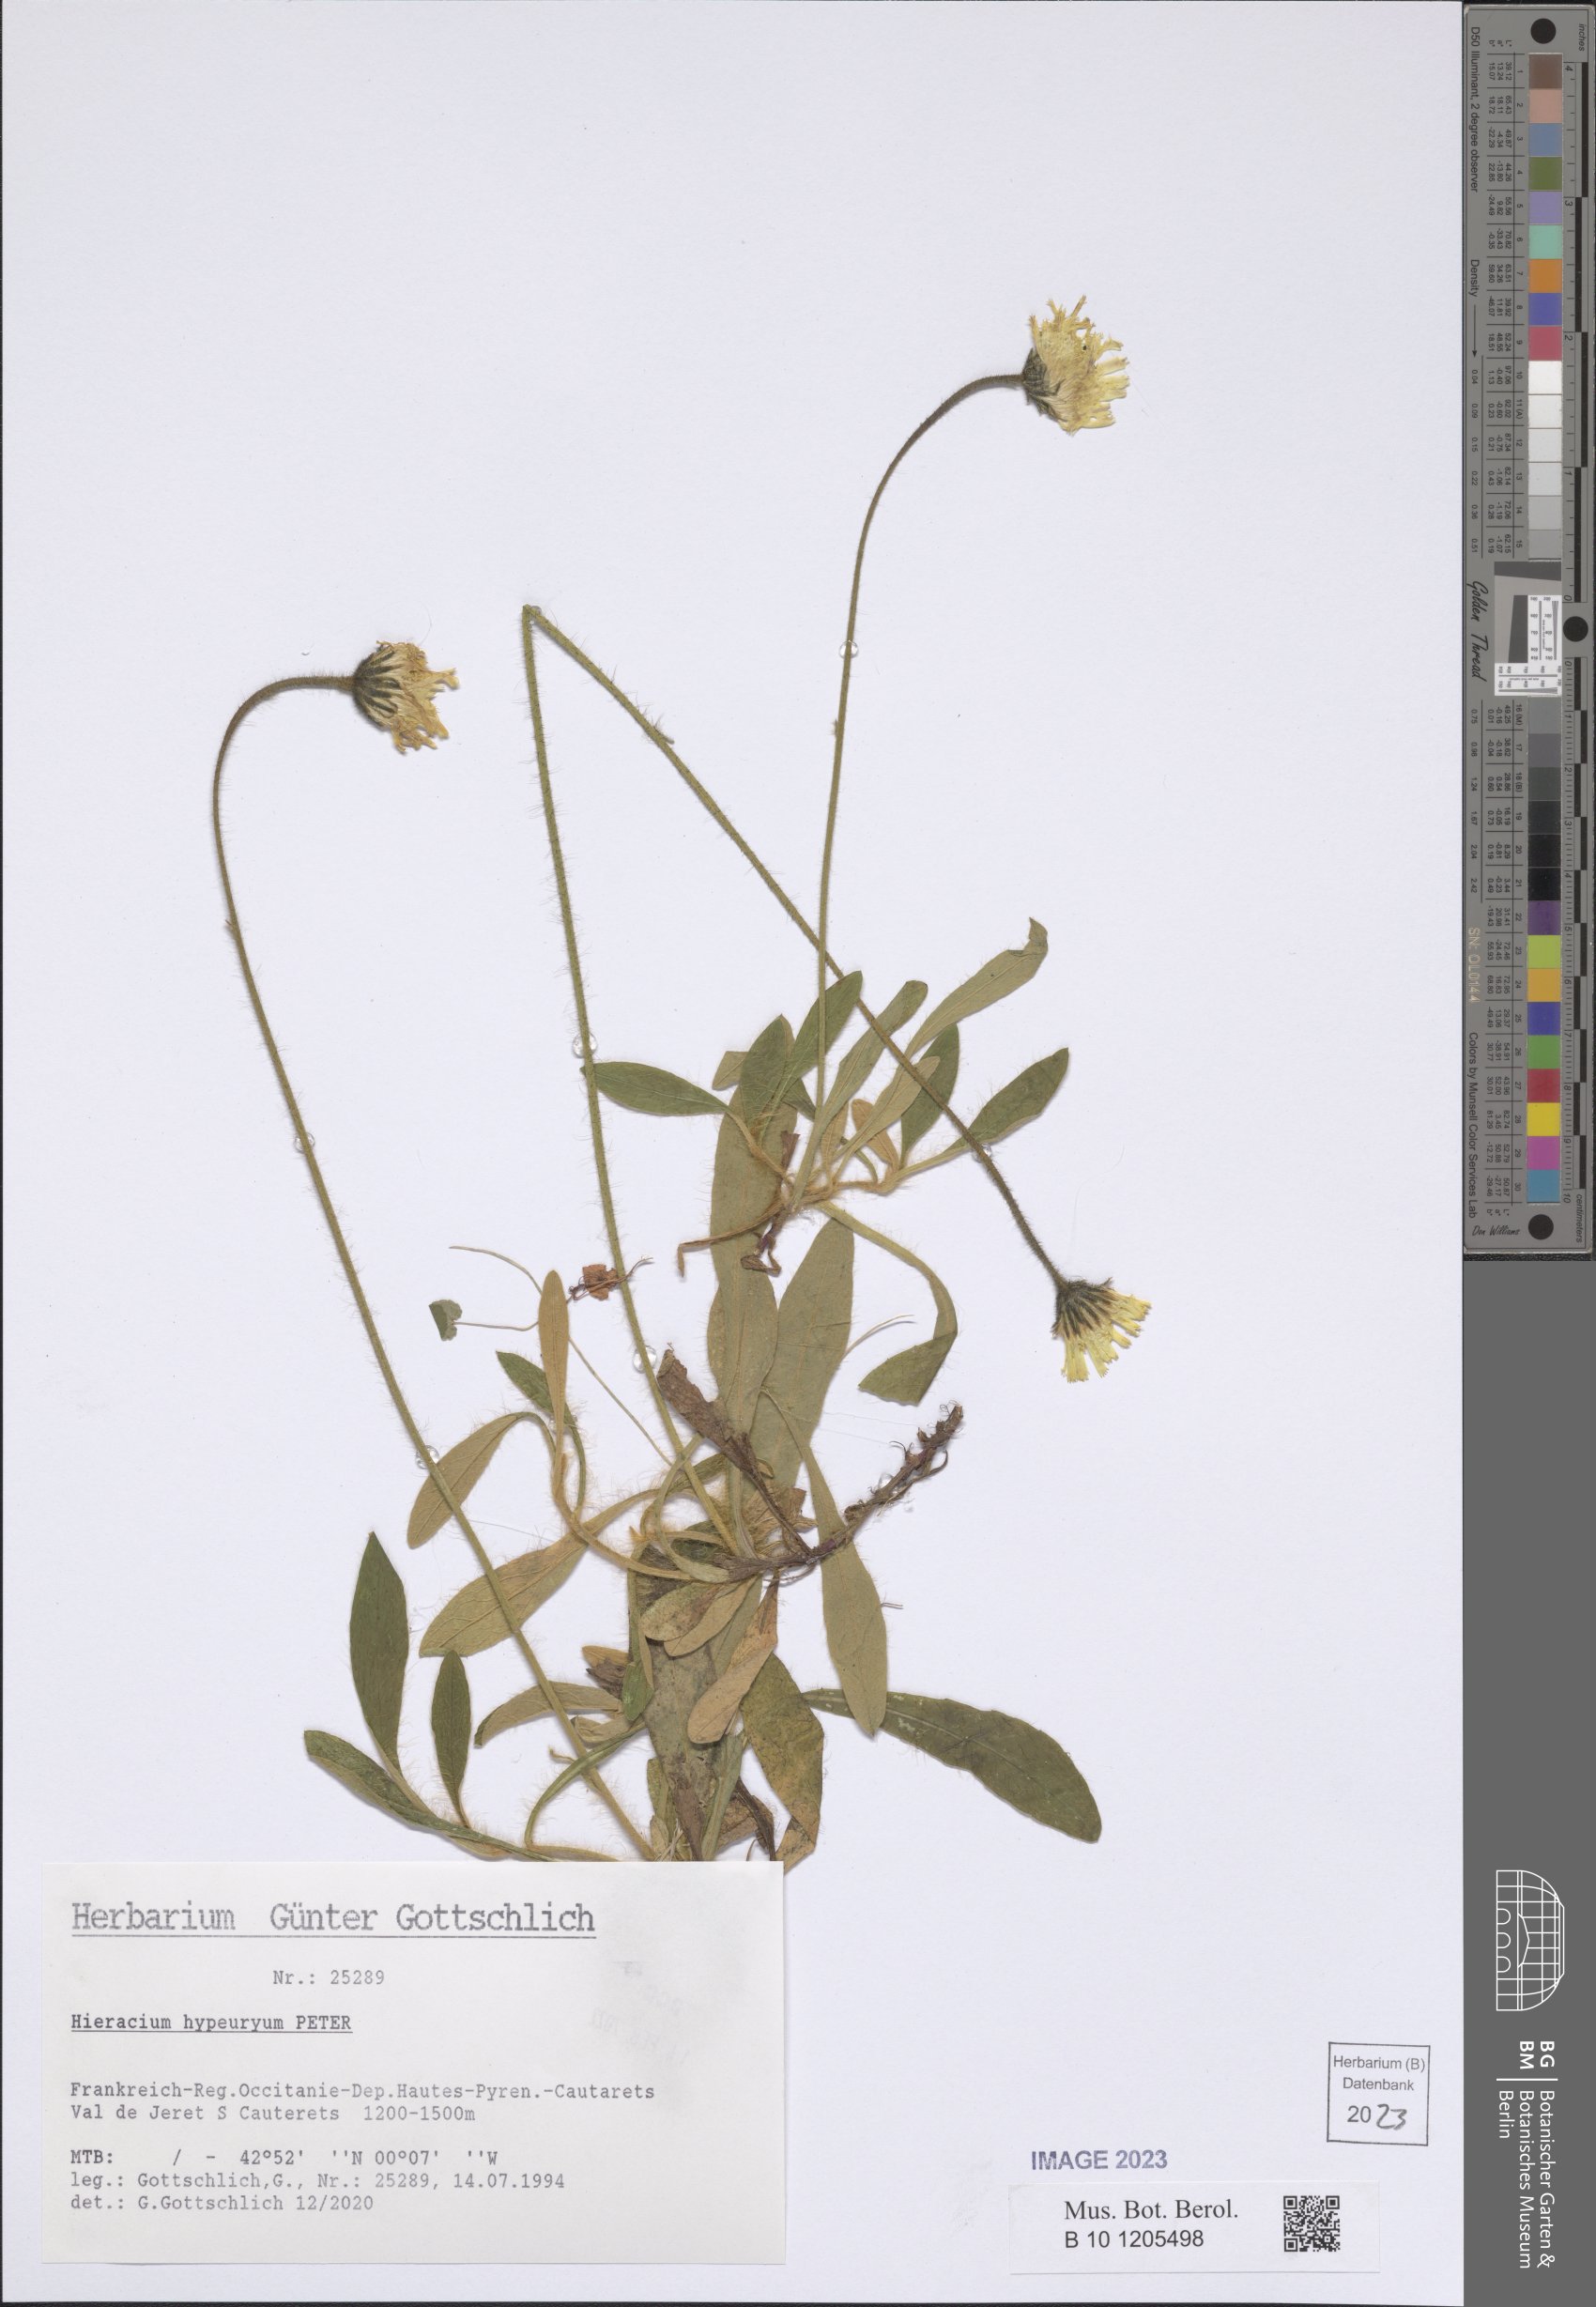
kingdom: Plantae
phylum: Tracheophyta
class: Magnoliopsida
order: Asterales
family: Asteraceae
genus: Pilosella
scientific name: Pilosella hypeurya
